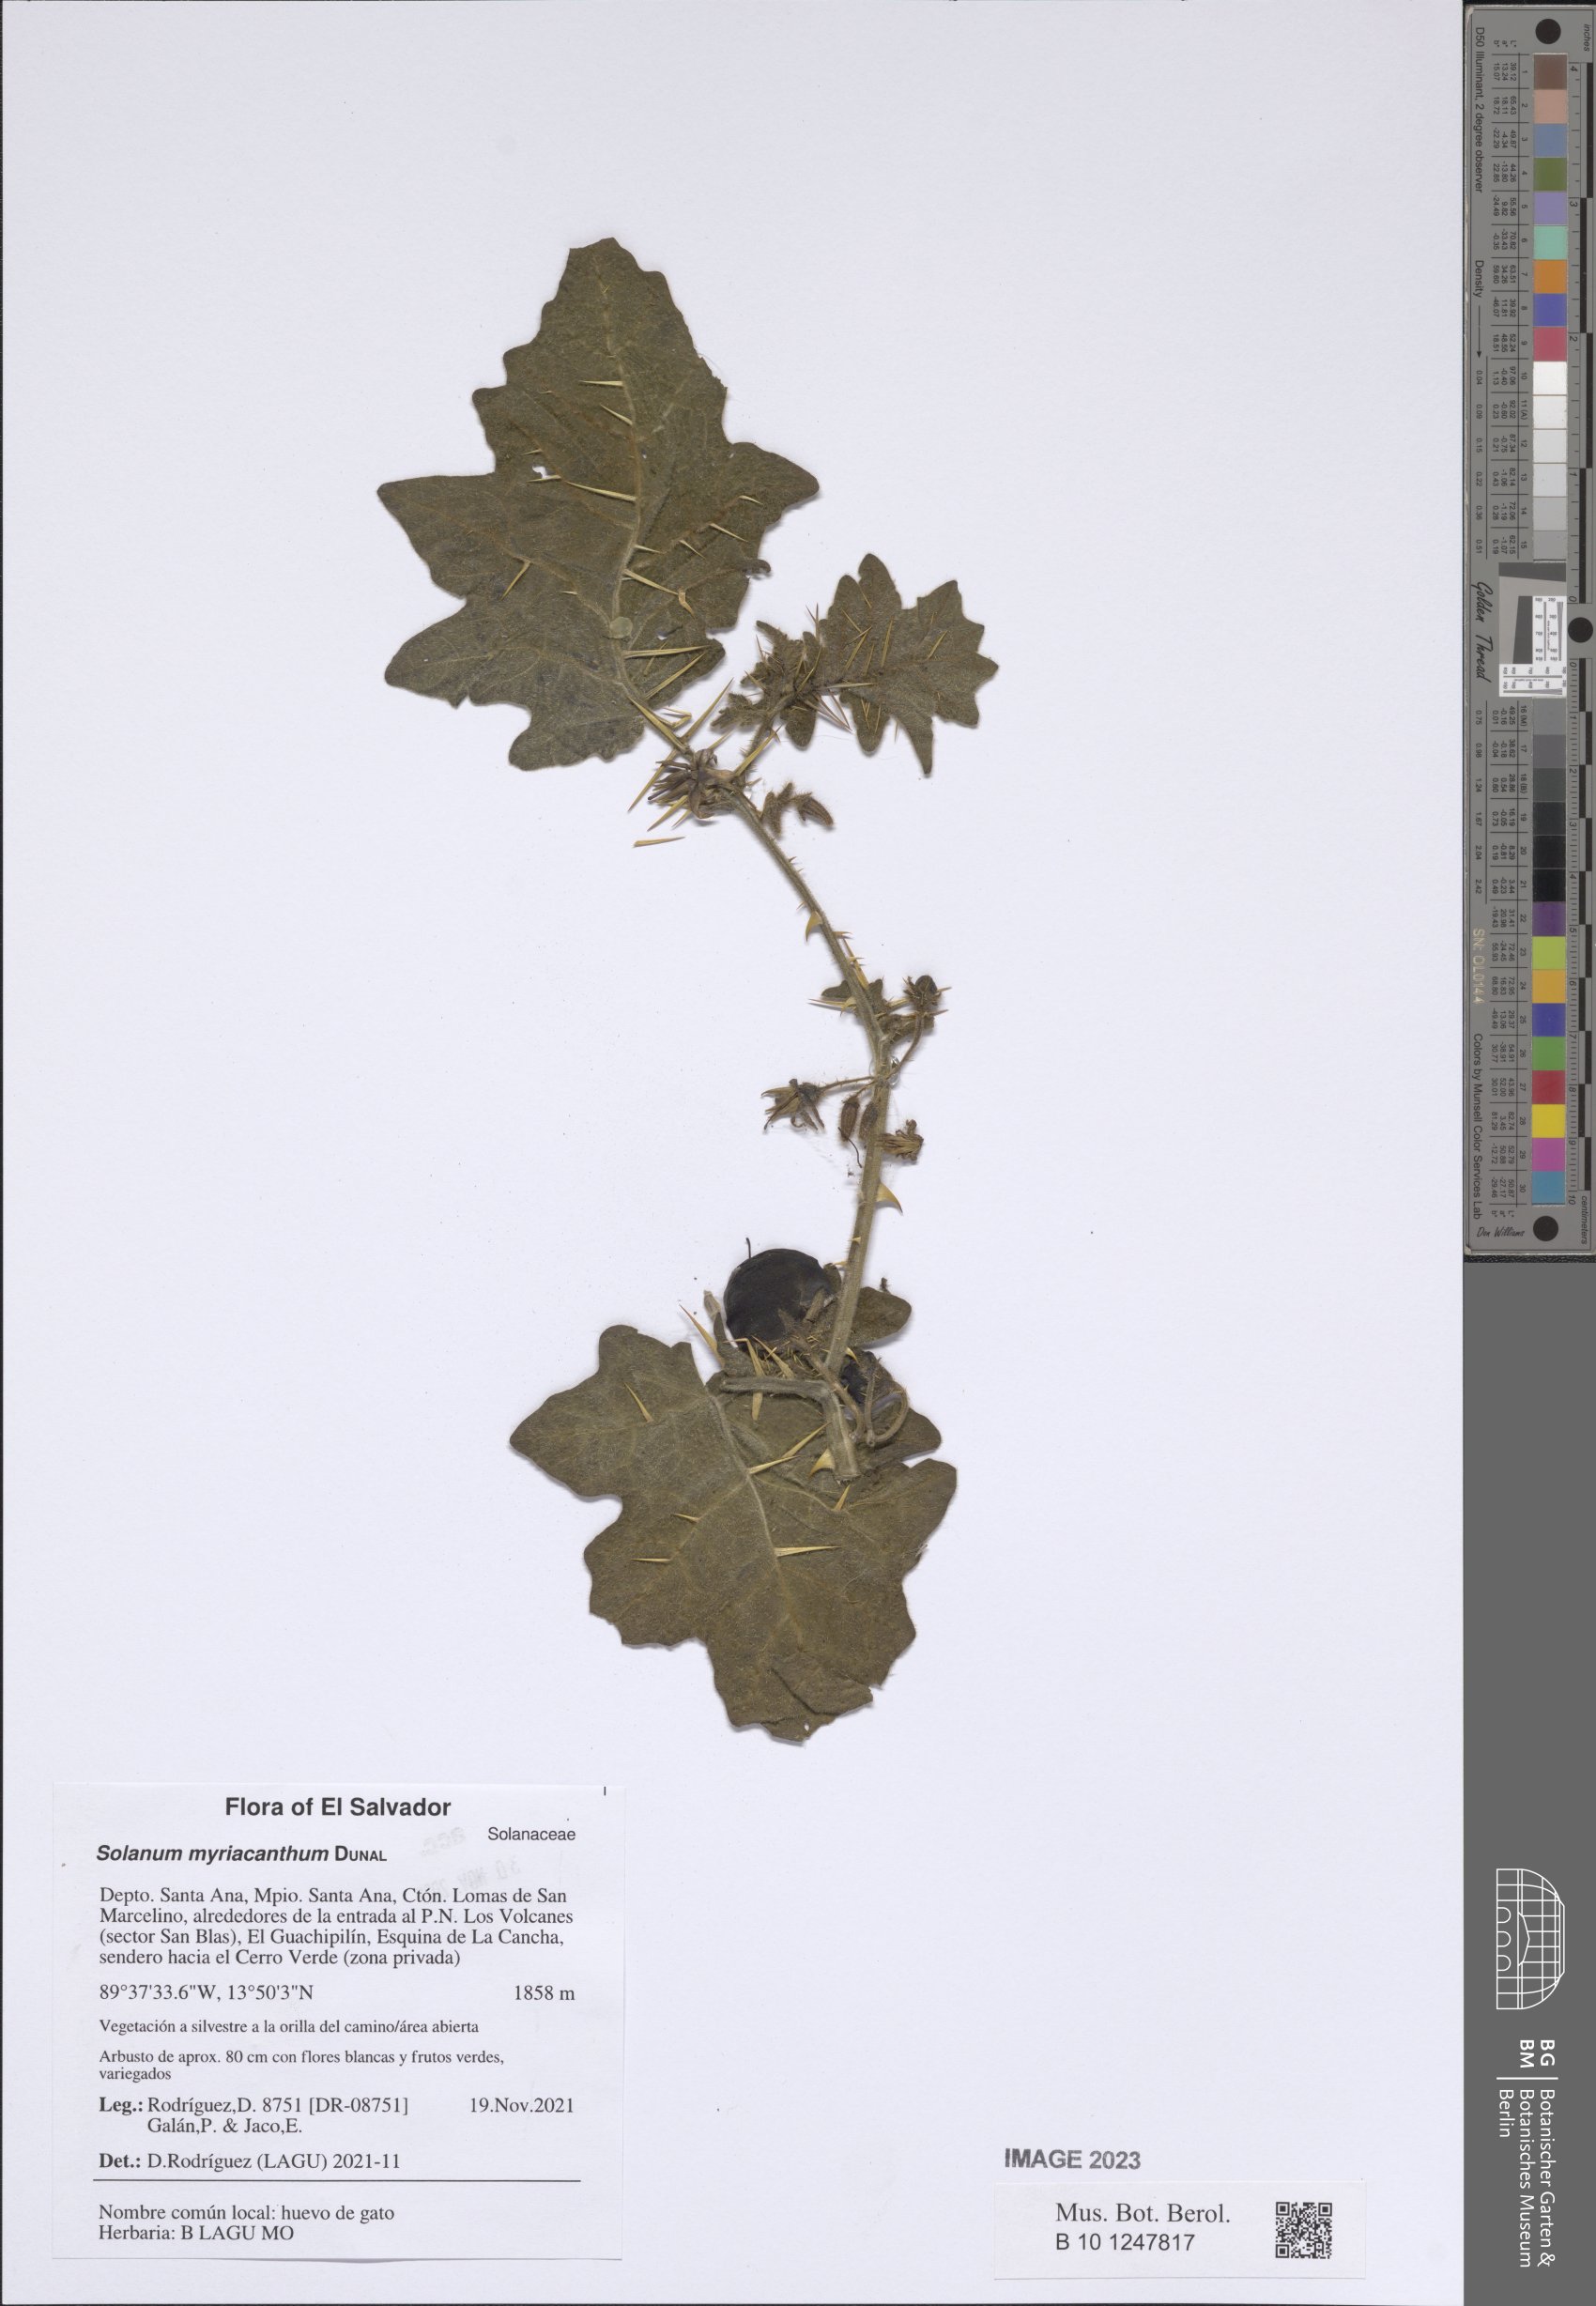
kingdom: Plantae
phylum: Tracheophyta
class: Magnoliopsida
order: Solanales
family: Solanaceae
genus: Solanum
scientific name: Solanum myriacanthum
